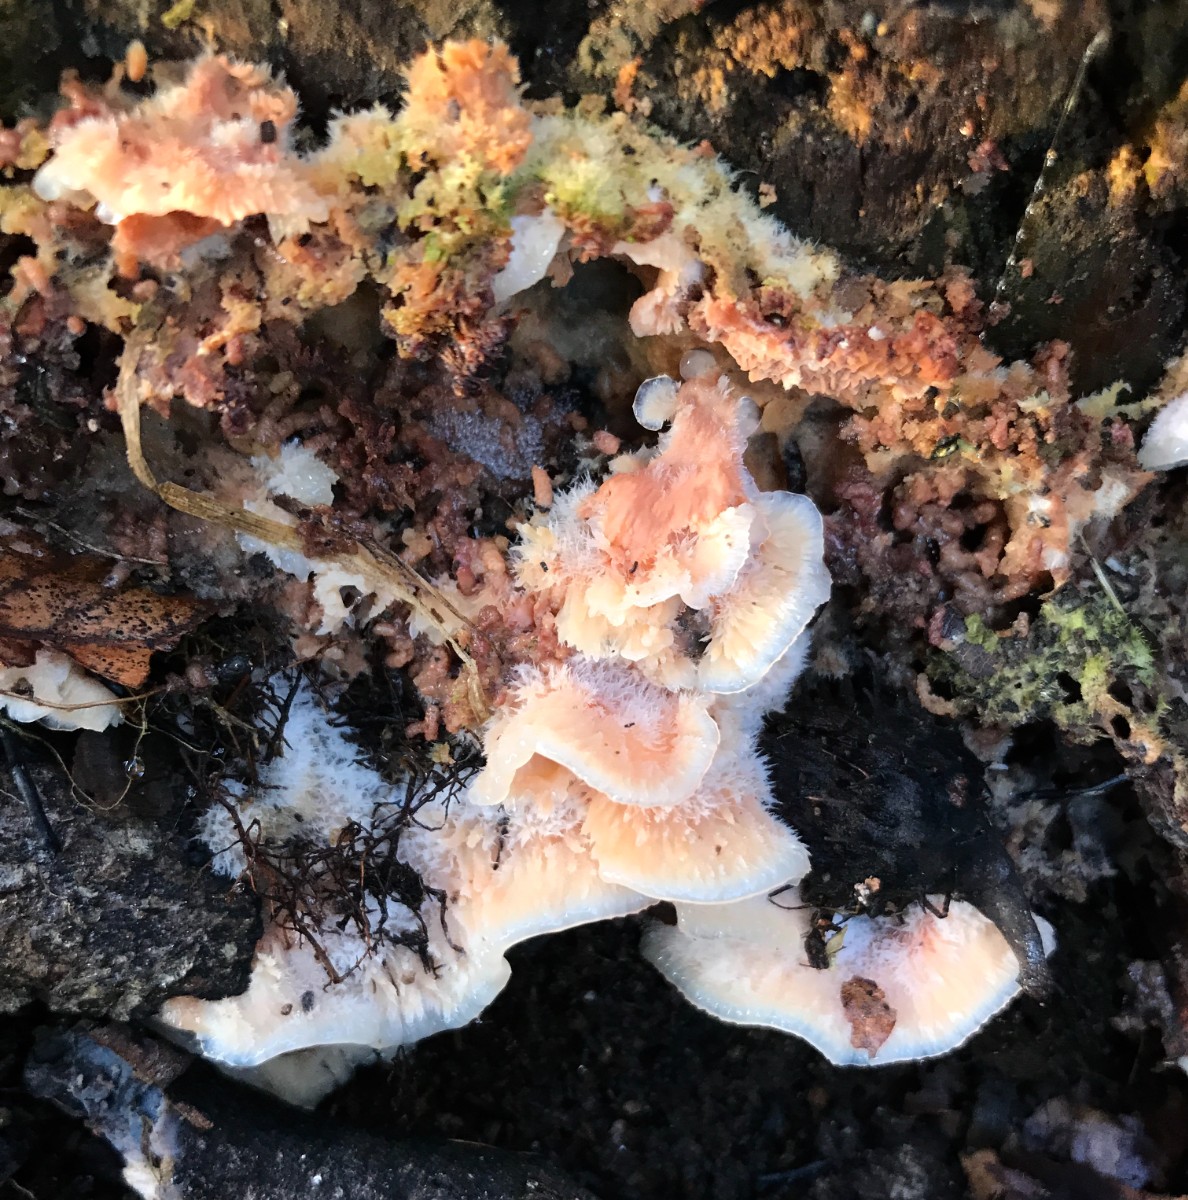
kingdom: Fungi
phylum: Basidiomycota
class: Agaricomycetes
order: Polyporales
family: Meruliaceae
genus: Phlebia
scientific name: Phlebia tremellosa
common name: bævrende åresvamp
